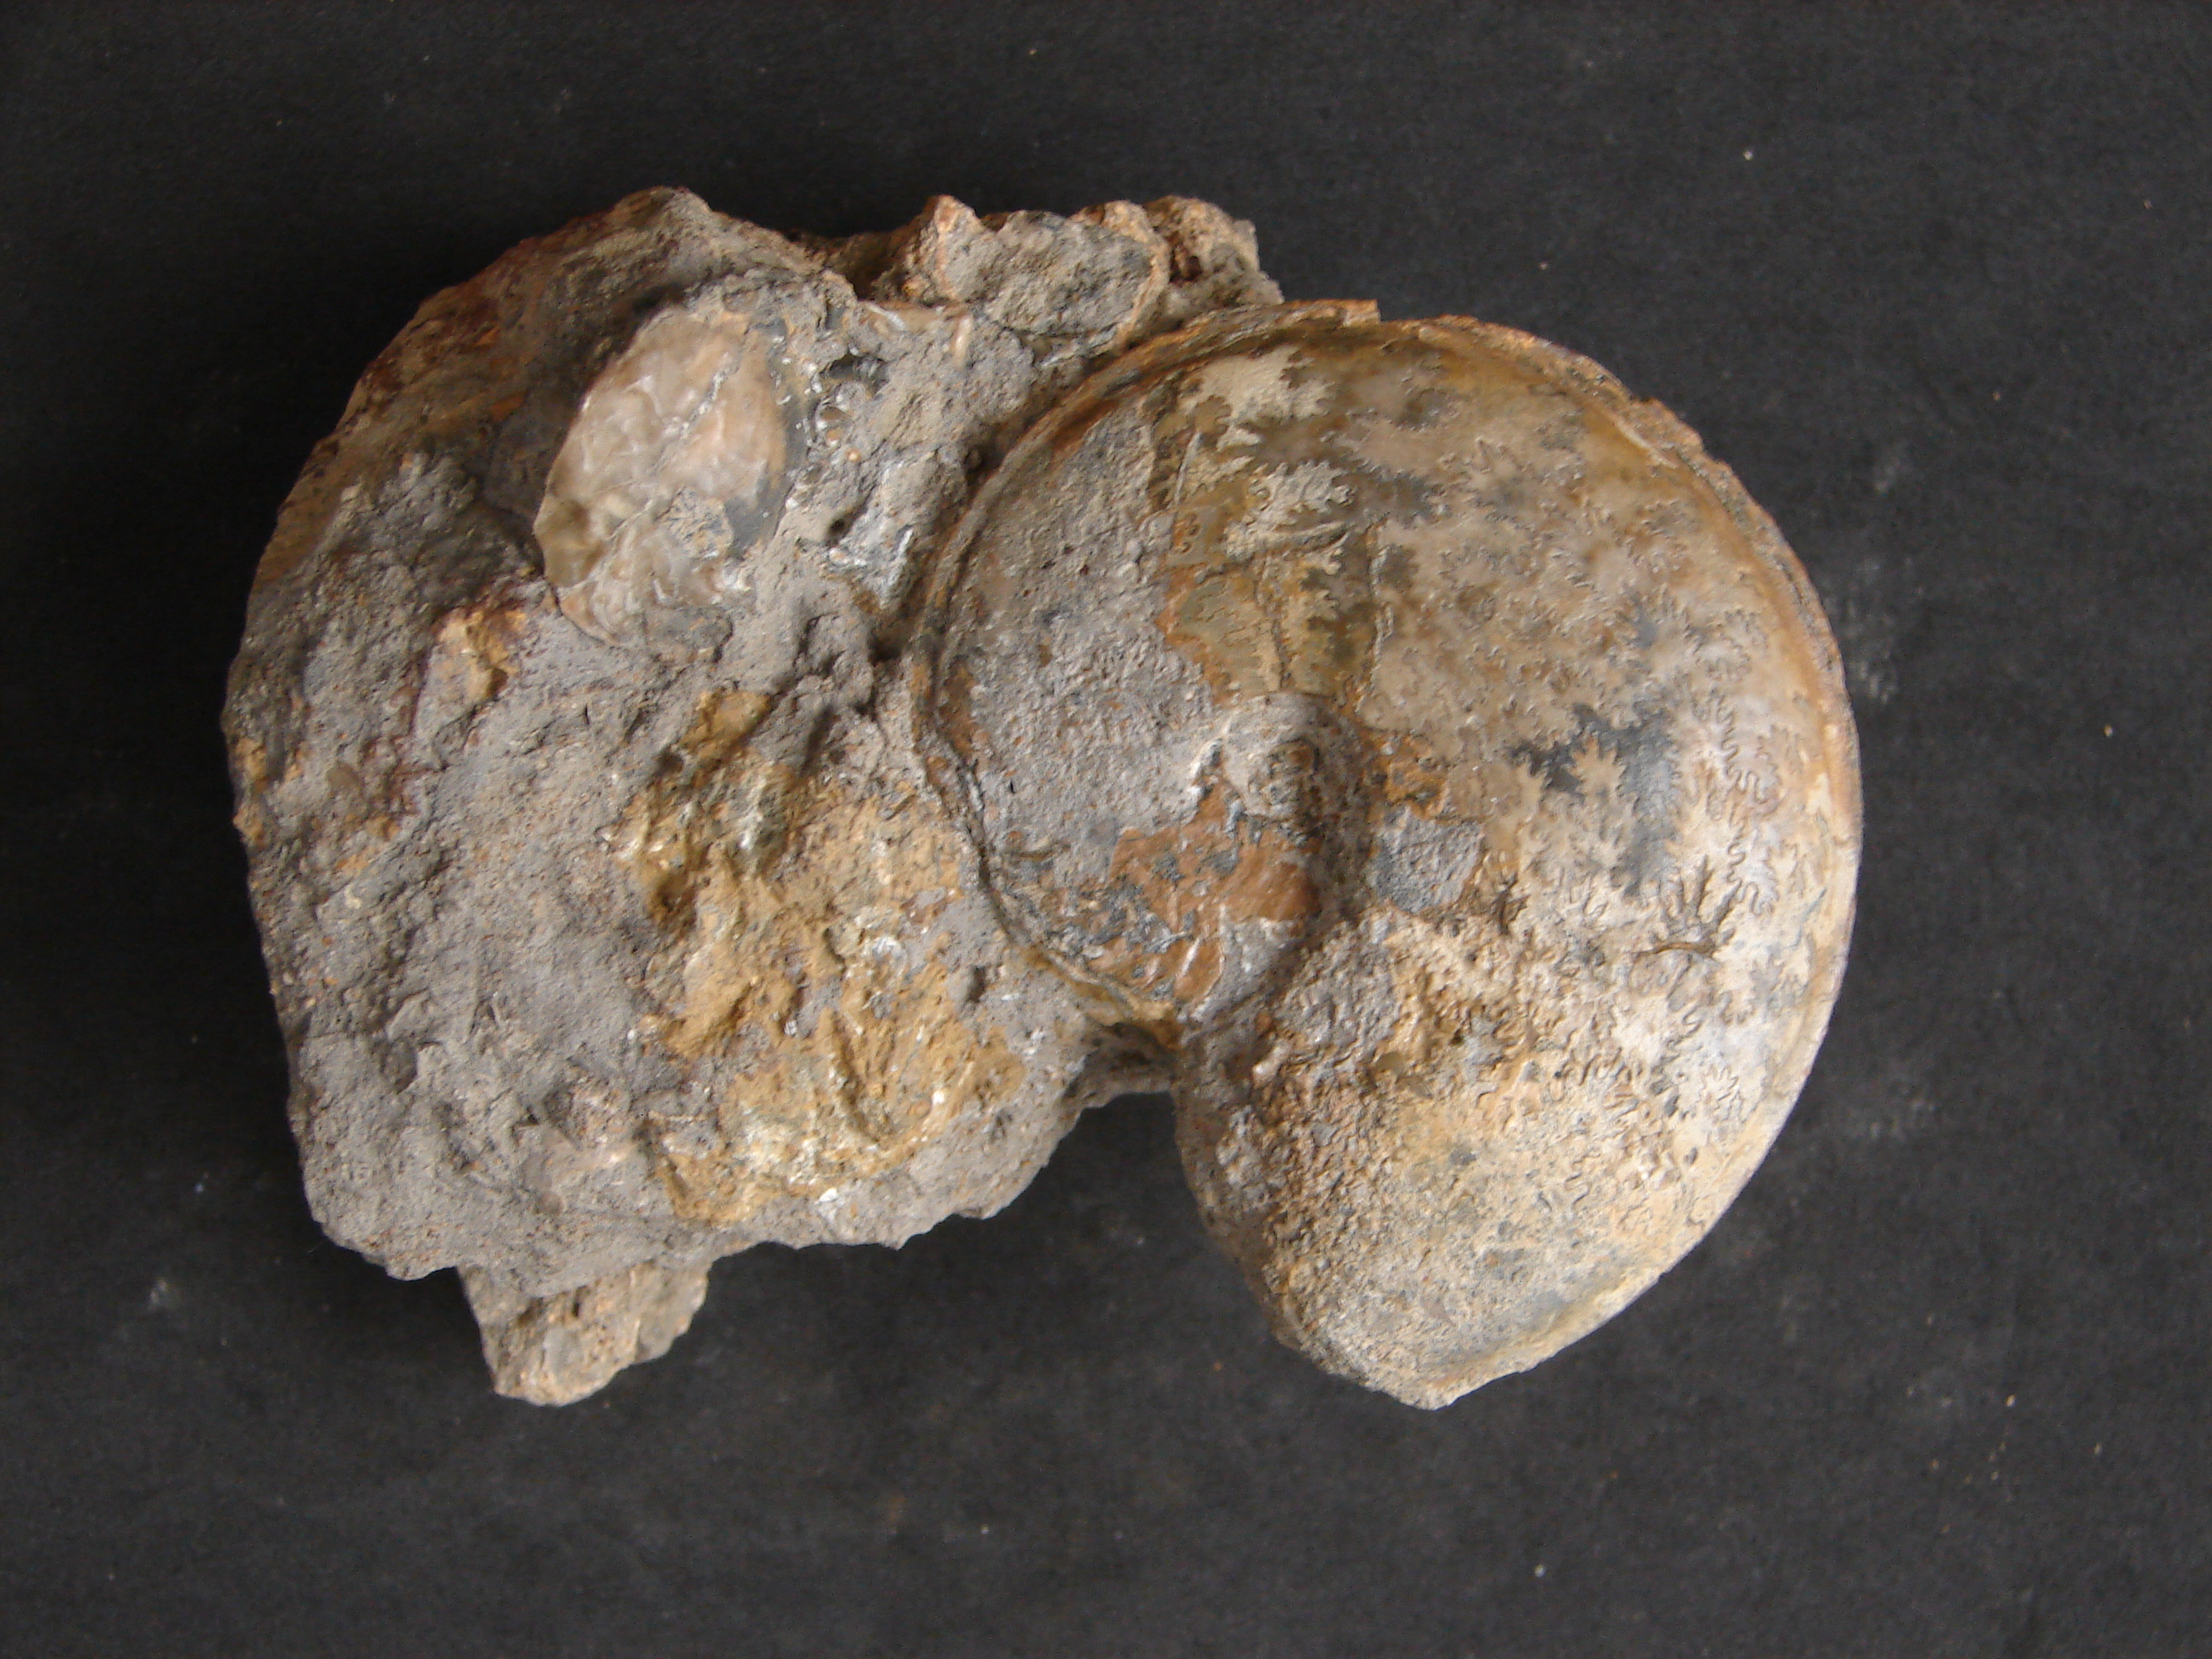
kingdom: Animalia
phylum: Mollusca
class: Cephalopoda
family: Graphoceratidae
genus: Hyperlioceras
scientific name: Hyperlioceras
